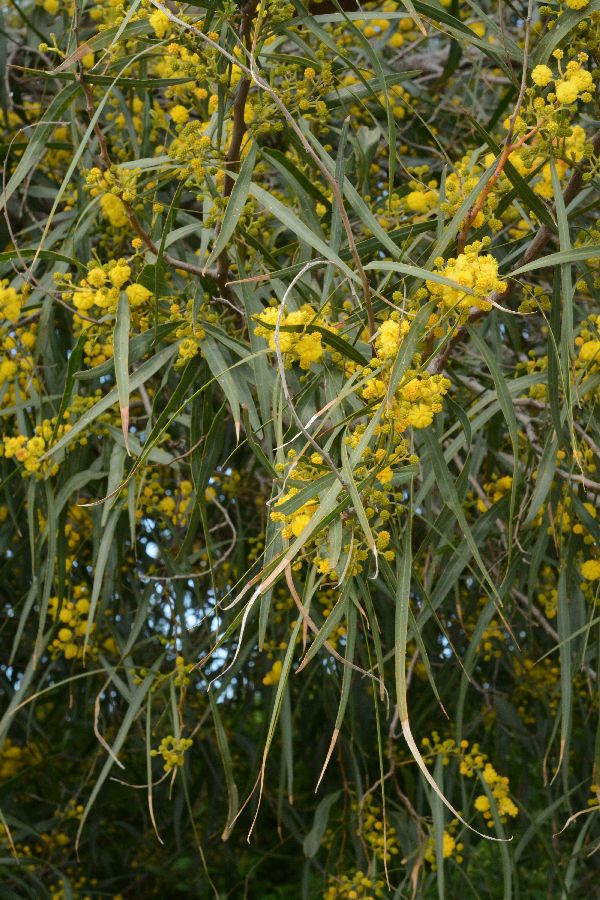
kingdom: Plantae
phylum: Tracheophyta
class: Magnoliopsida
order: Fabales
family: Fabaceae
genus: Acacia
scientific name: Acacia saligna
